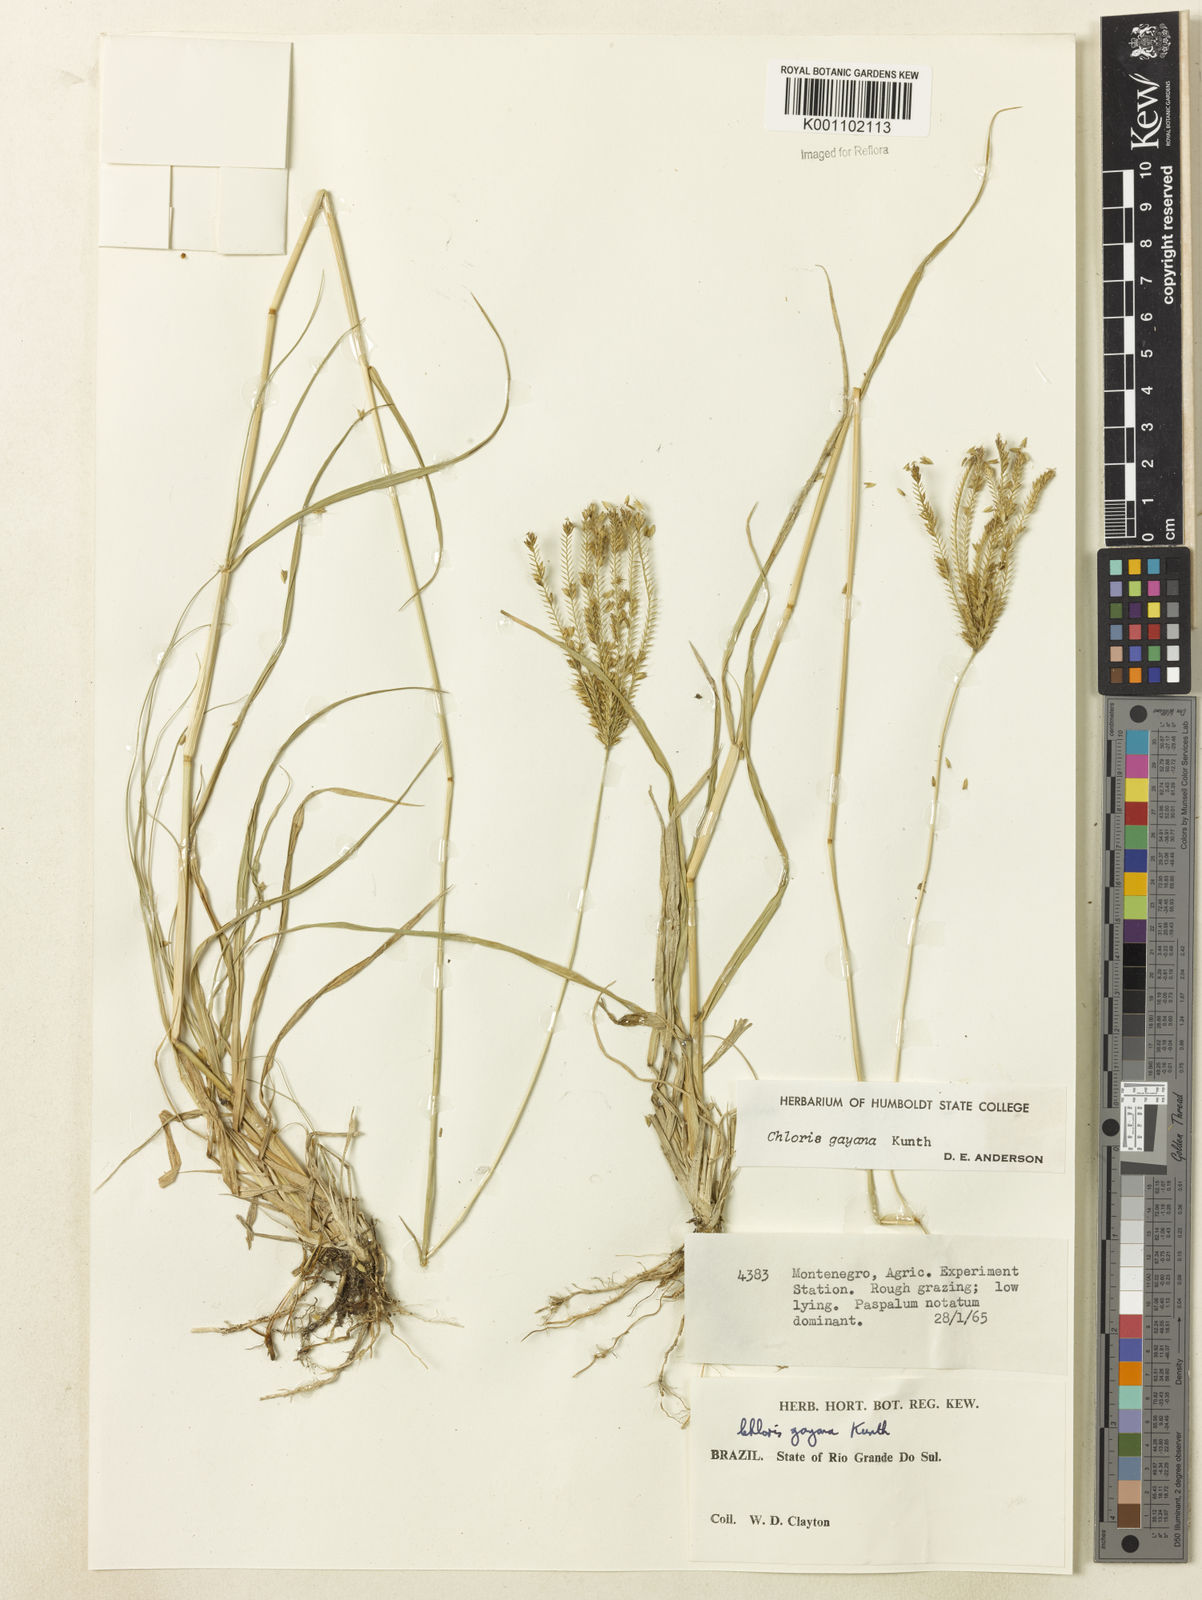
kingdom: Plantae
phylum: Tracheophyta
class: Liliopsida
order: Poales
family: Poaceae
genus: Chloris
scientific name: Chloris gayana
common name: Rhodes grass
